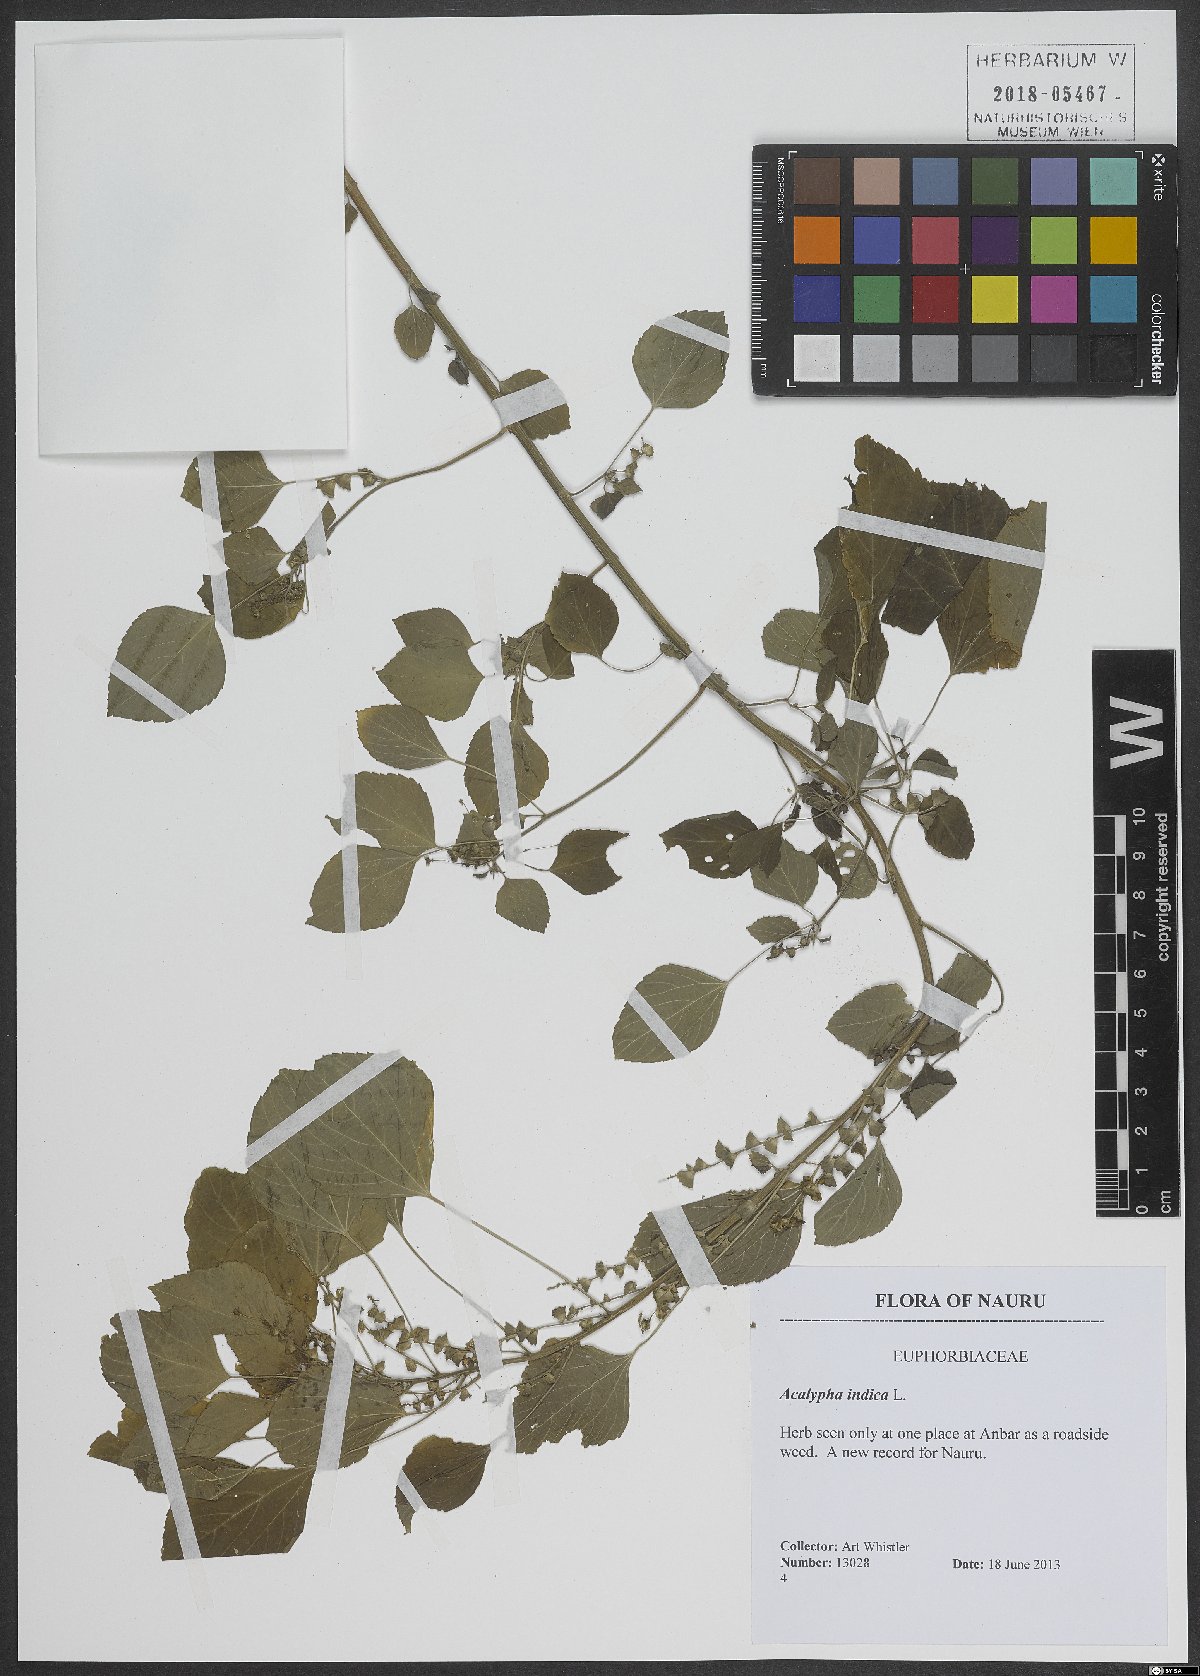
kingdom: Plantae
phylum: Tracheophyta
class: Magnoliopsida
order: Malpighiales
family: Euphorbiaceae
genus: Acalypha
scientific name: Acalypha indica
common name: Indian acalypha
